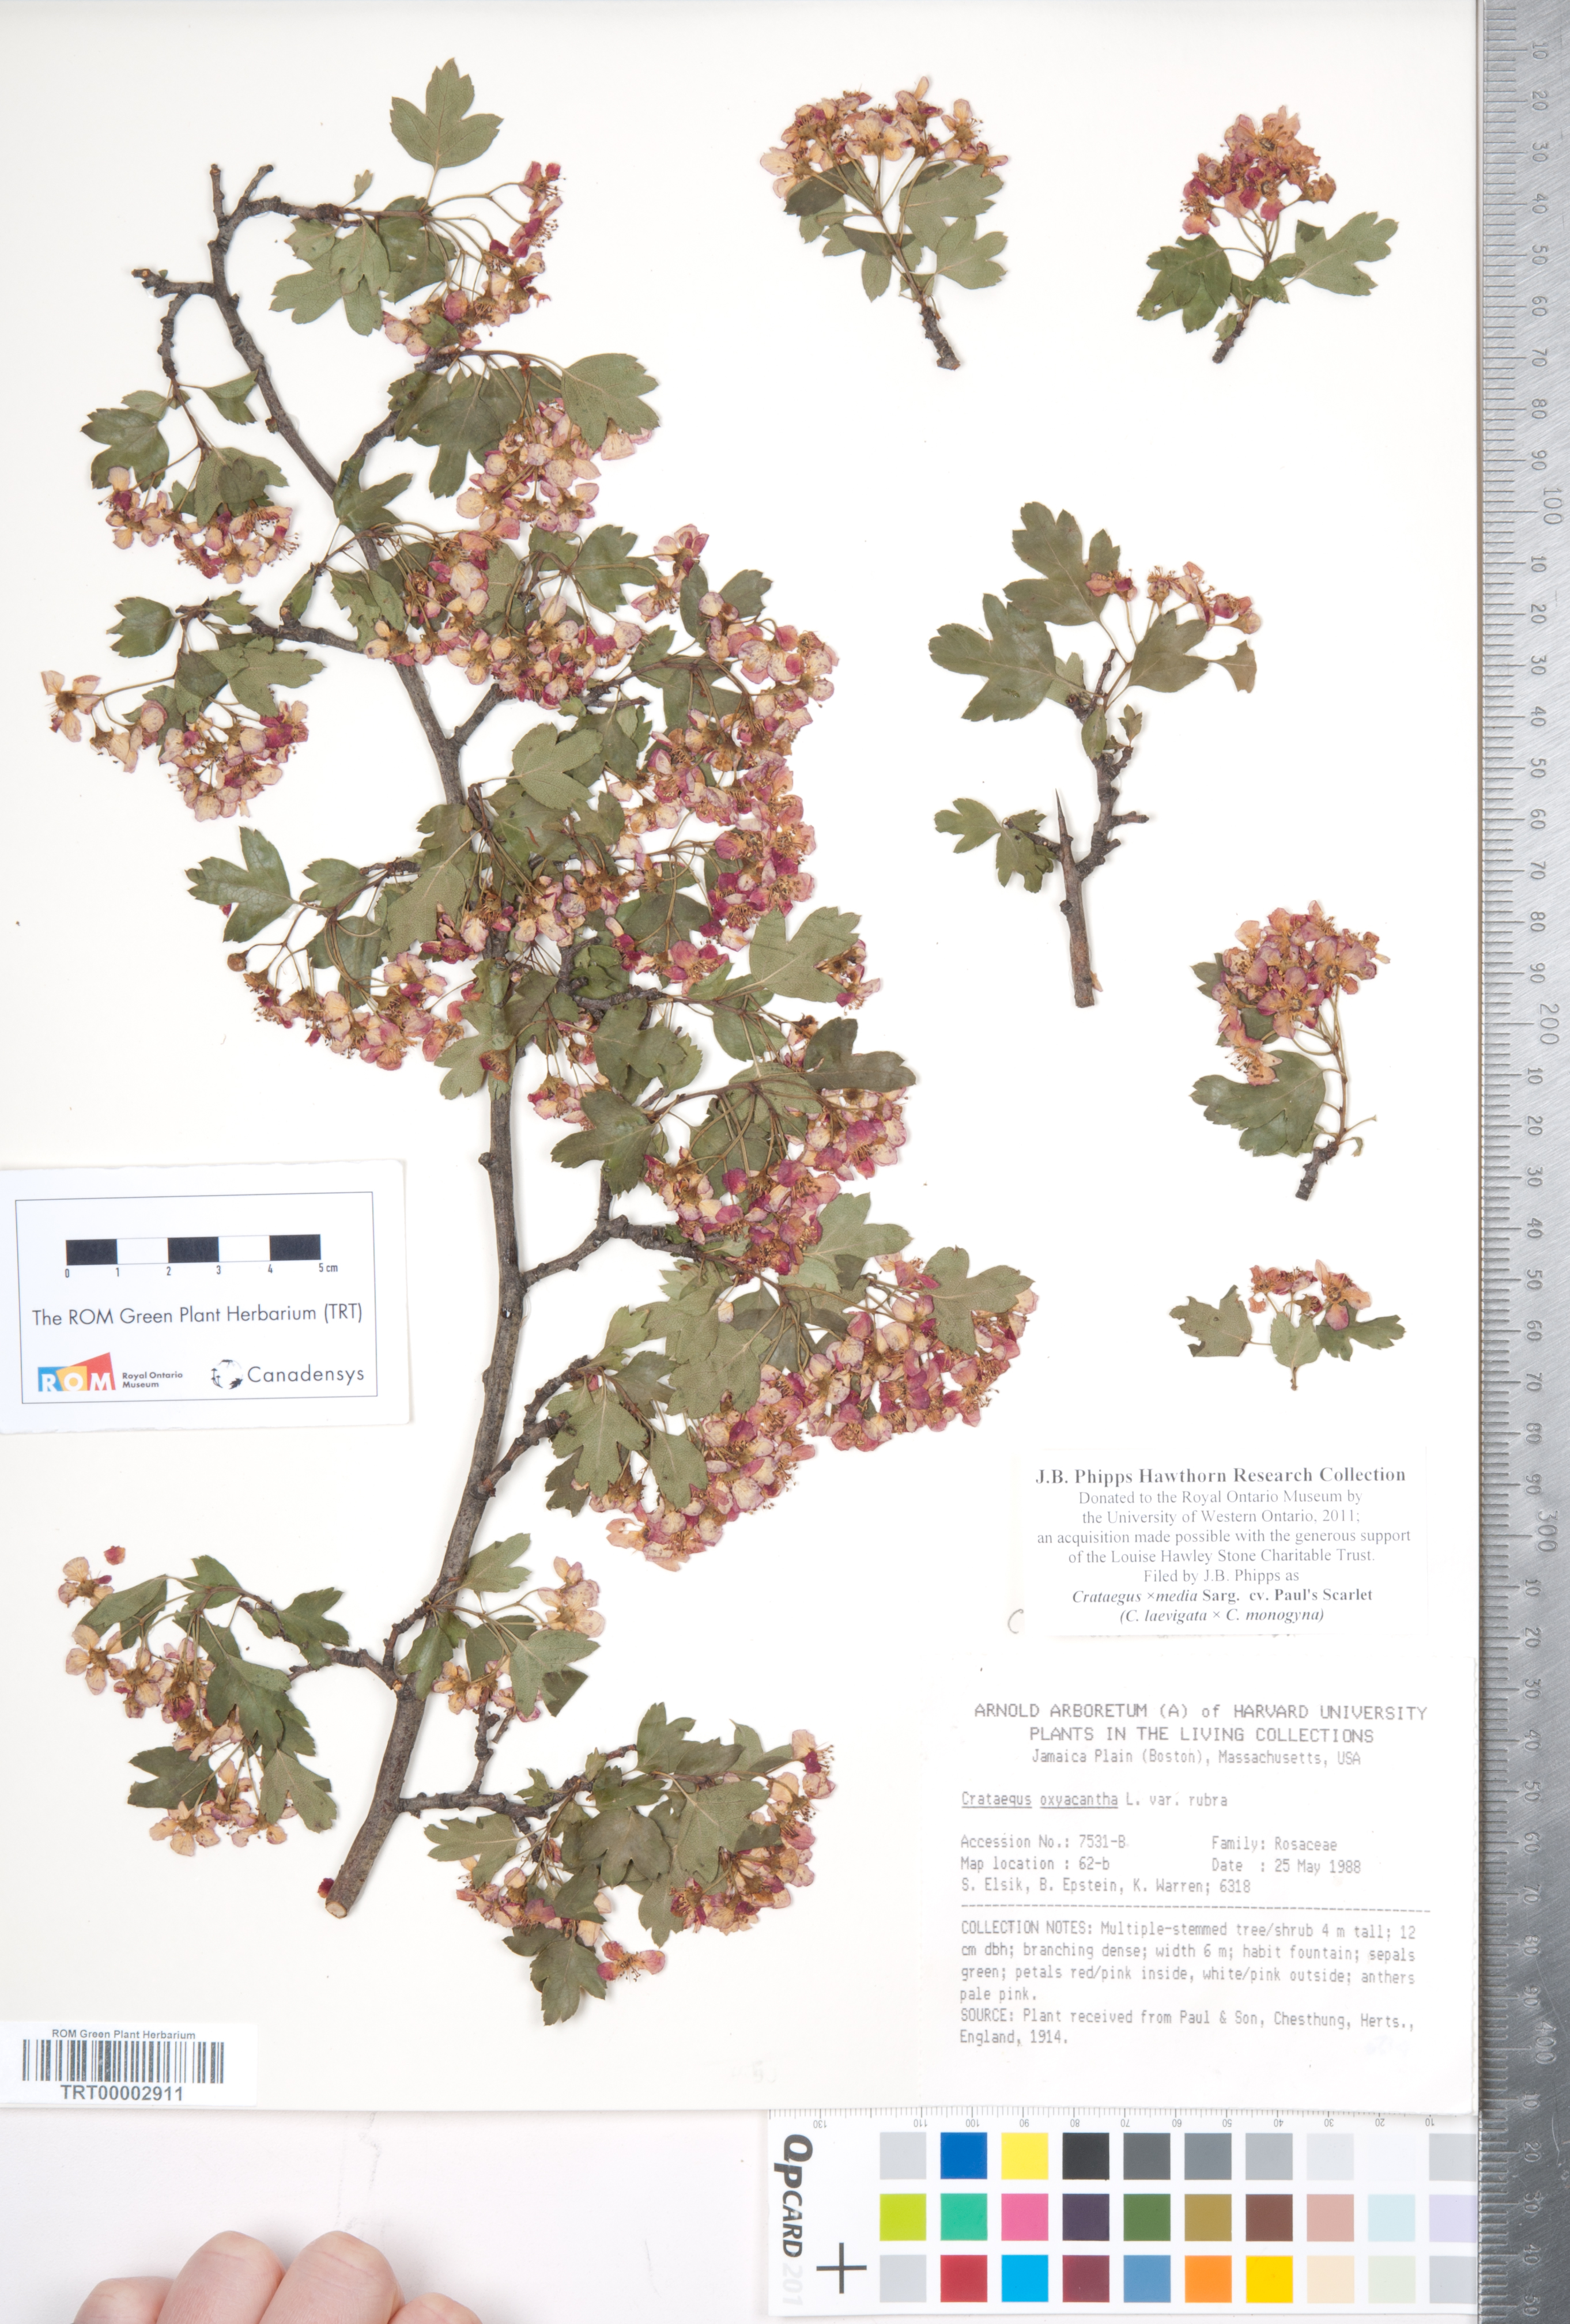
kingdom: Plantae
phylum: Tracheophyta
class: Magnoliopsida
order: Rosales
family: Rosaceae
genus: Crataegus
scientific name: Crataegus media
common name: Intermediate hawthorn
